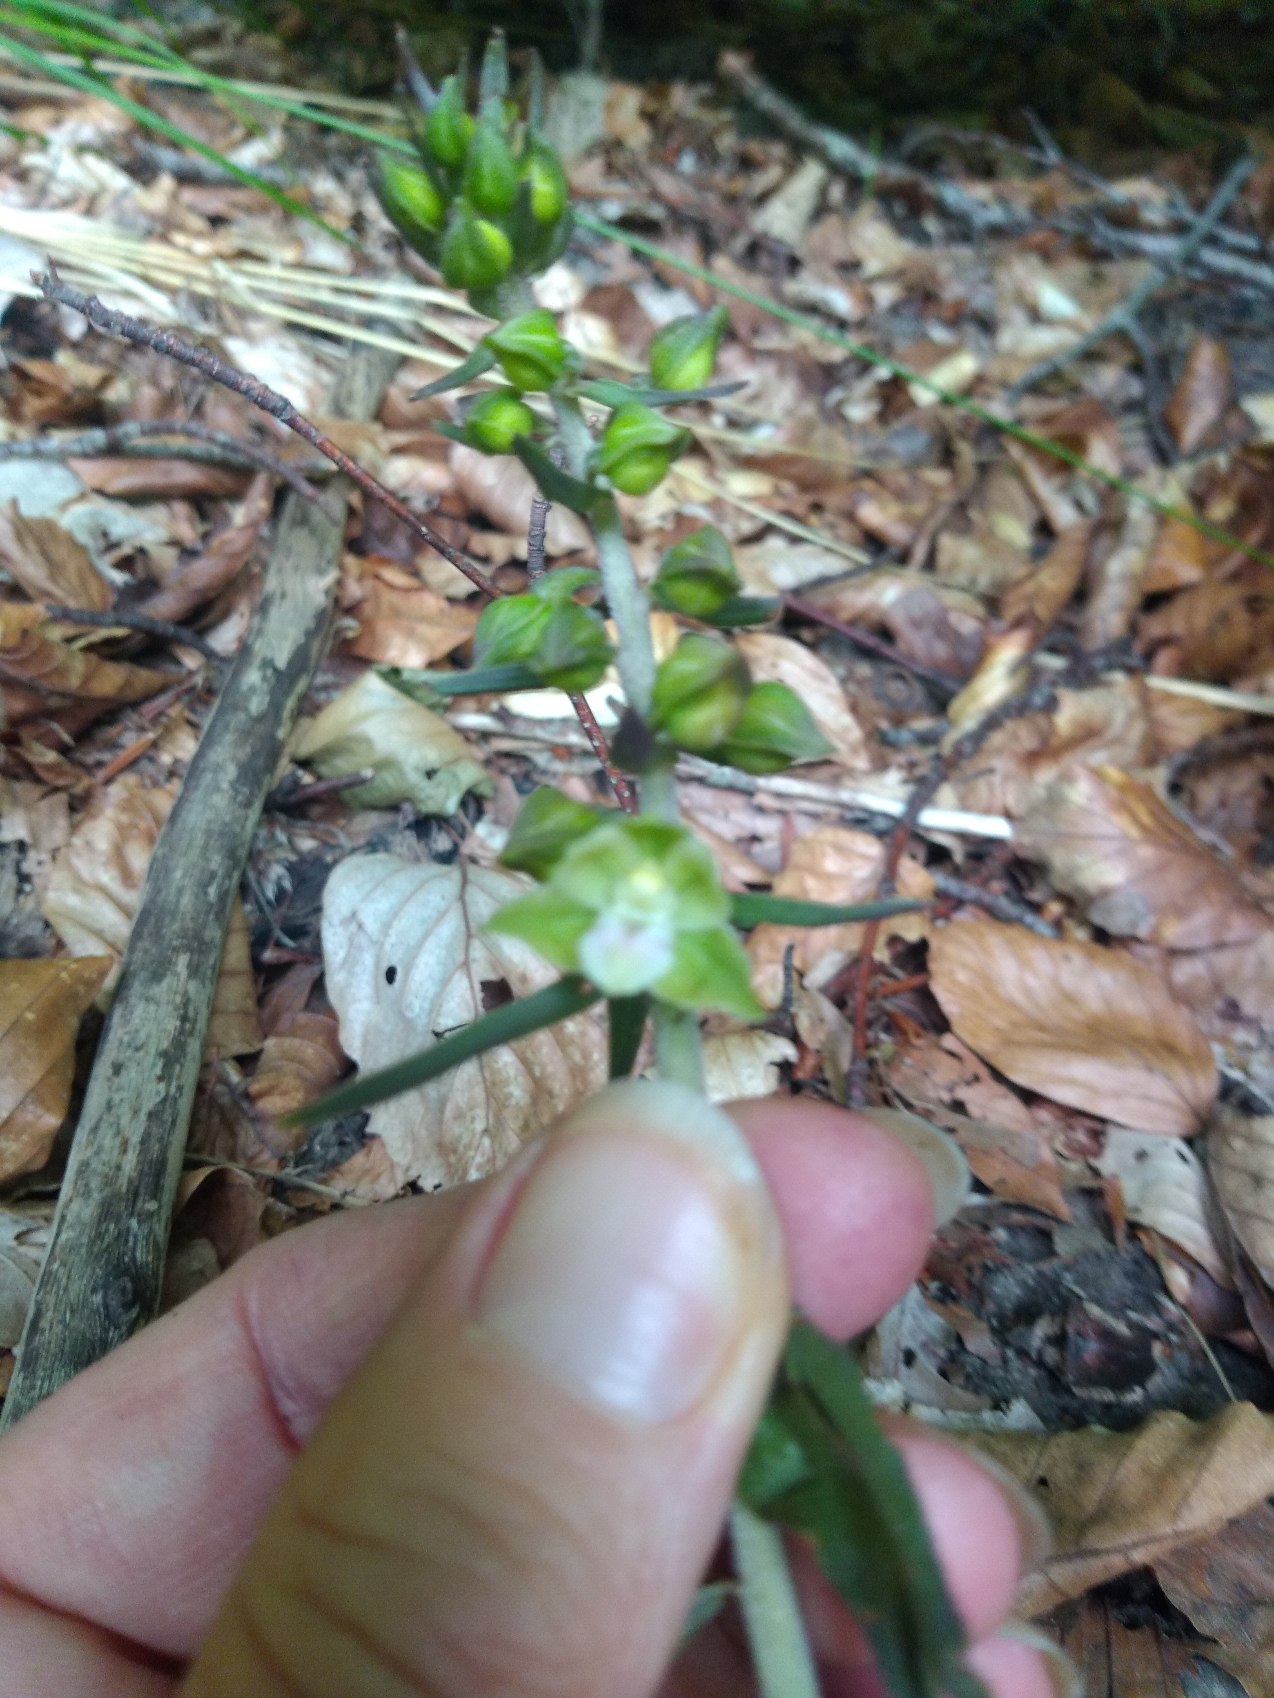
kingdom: Plantae
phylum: Tracheophyta
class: Liliopsida
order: Asparagales
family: Orchidaceae
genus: Epipactis
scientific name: Epipactis purpurata
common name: Tætblomstret hullæbe
